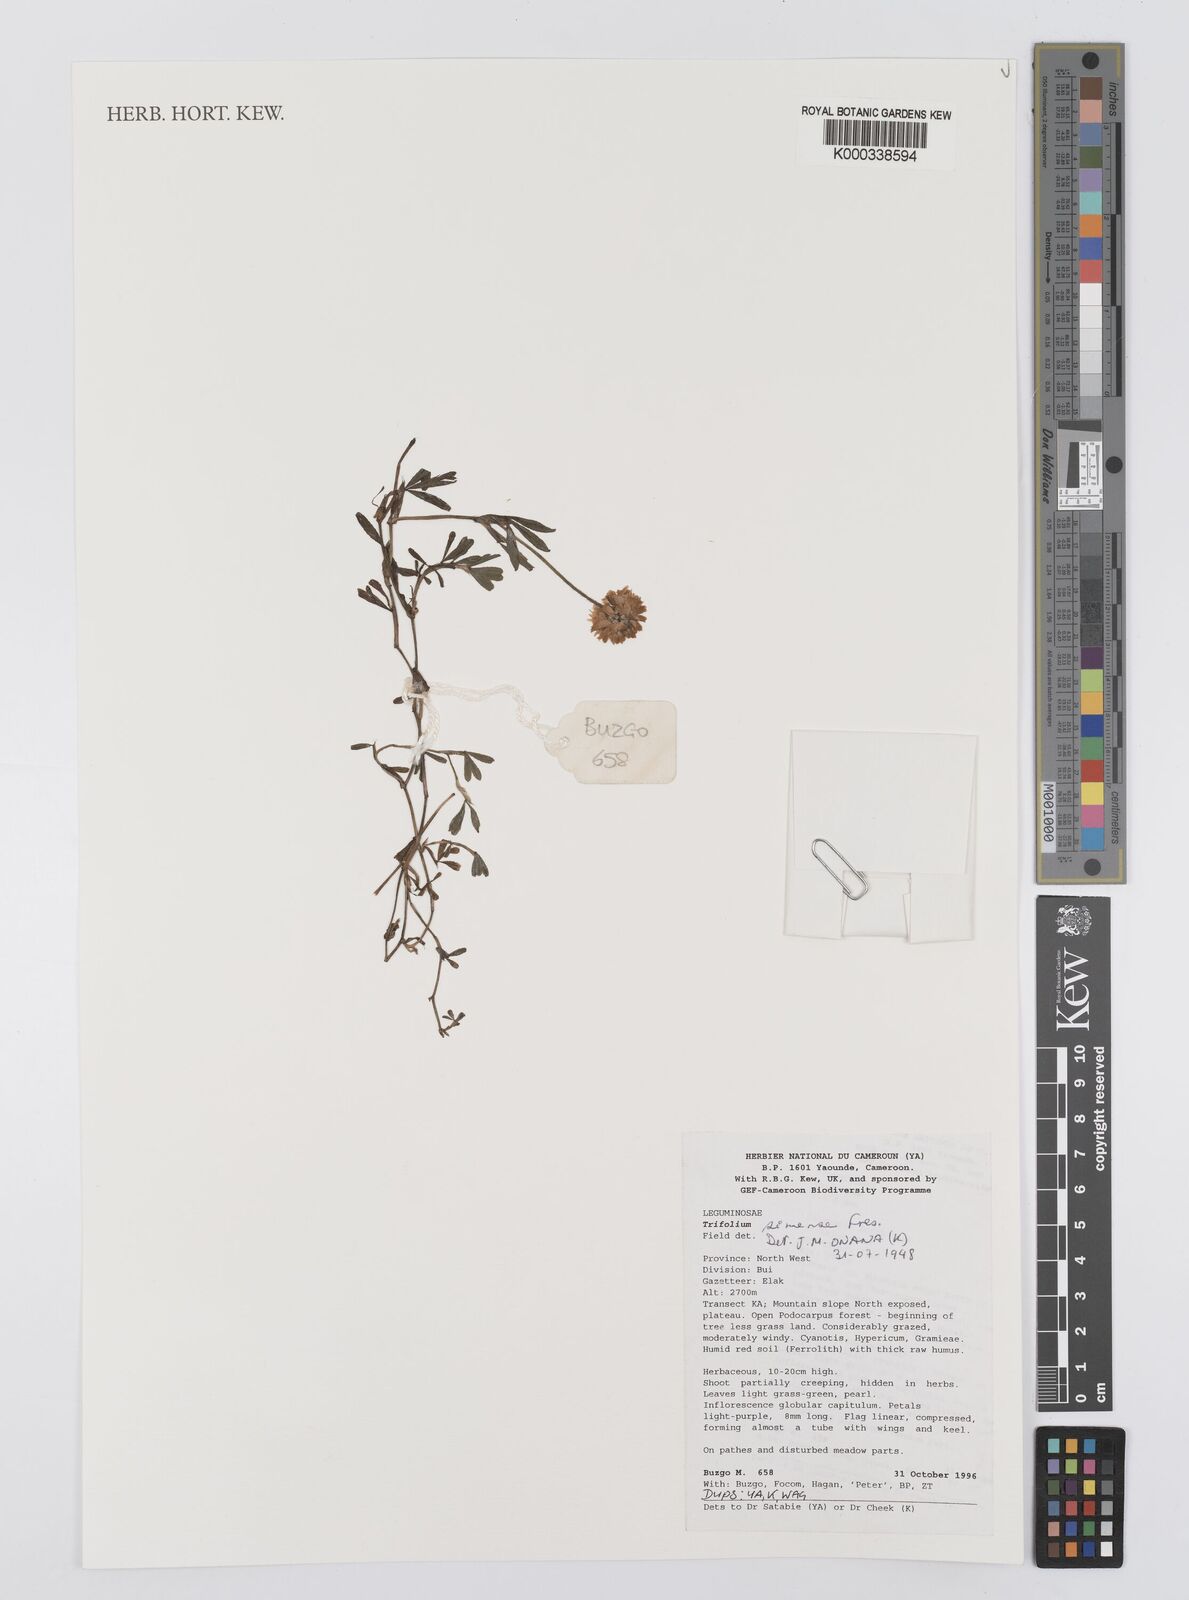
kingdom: Plantae
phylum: Tracheophyta
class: Magnoliopsida
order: Fabales
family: Fabaceae
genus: Trifolium
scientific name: Trifolium simense
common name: Simen clover
